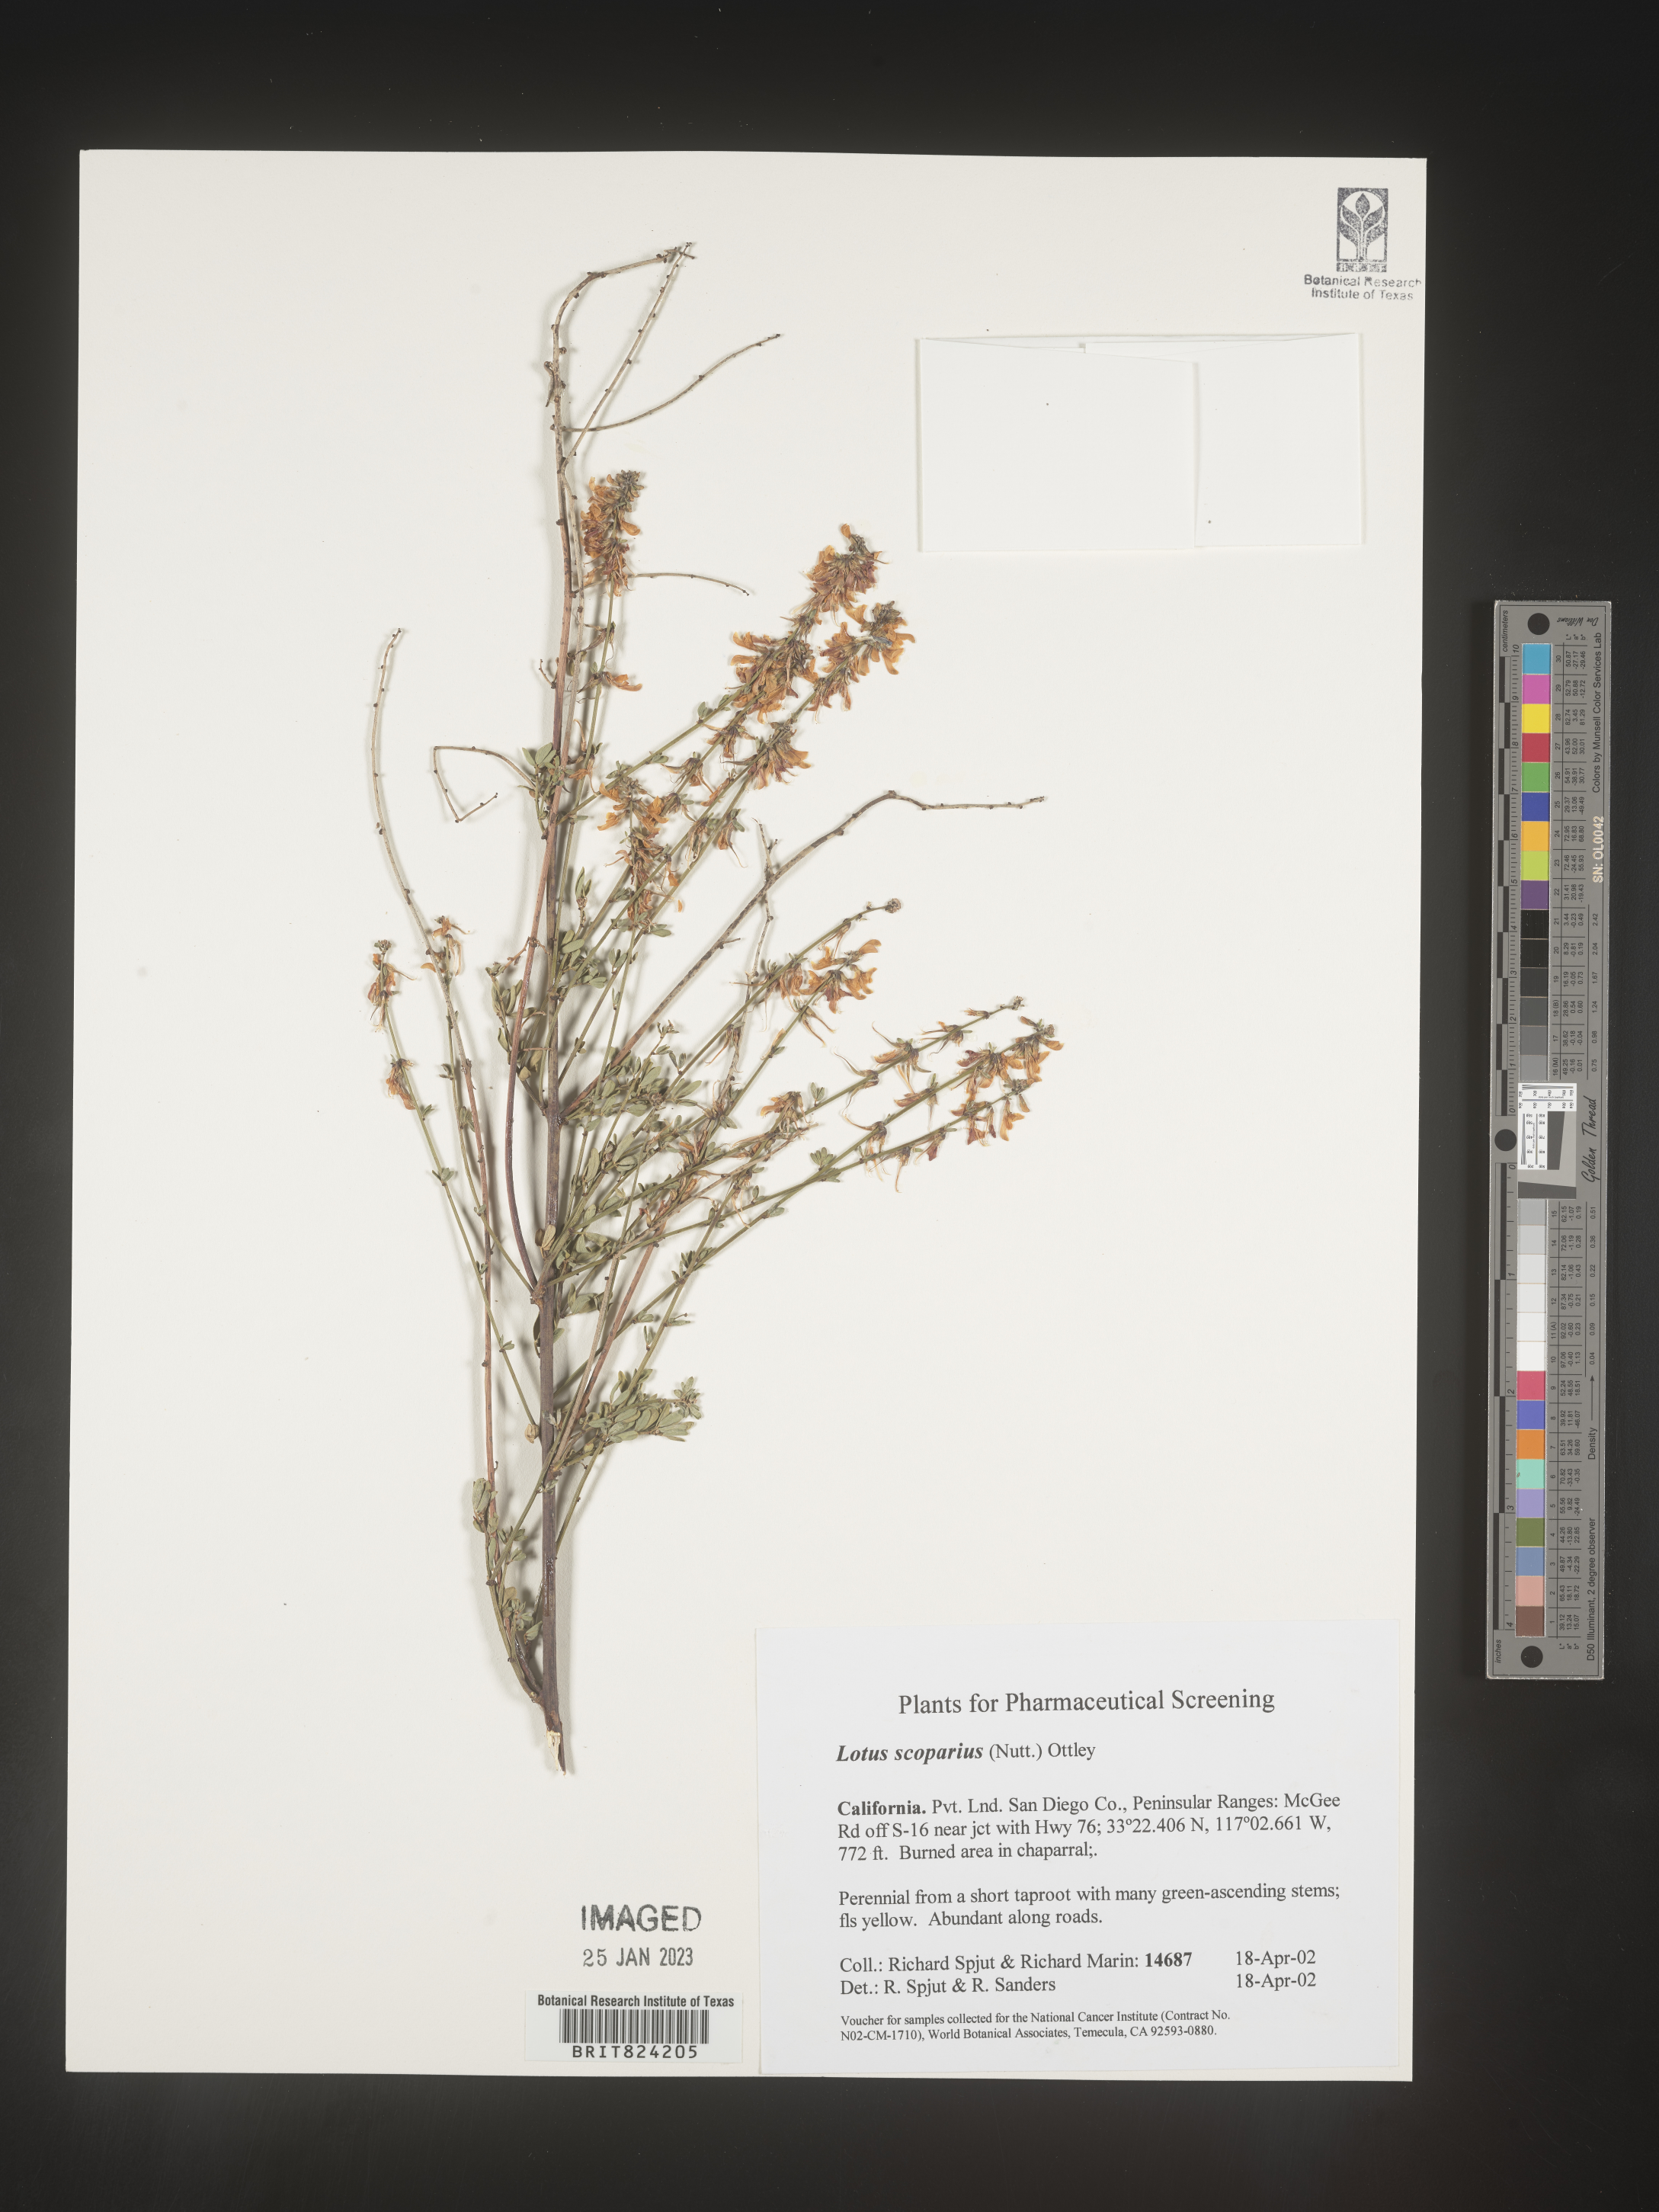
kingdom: Plantae
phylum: Tracheophyta
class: Magnoliopsida
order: Fabales
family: Fabaceae
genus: Lotus
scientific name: Lotus
